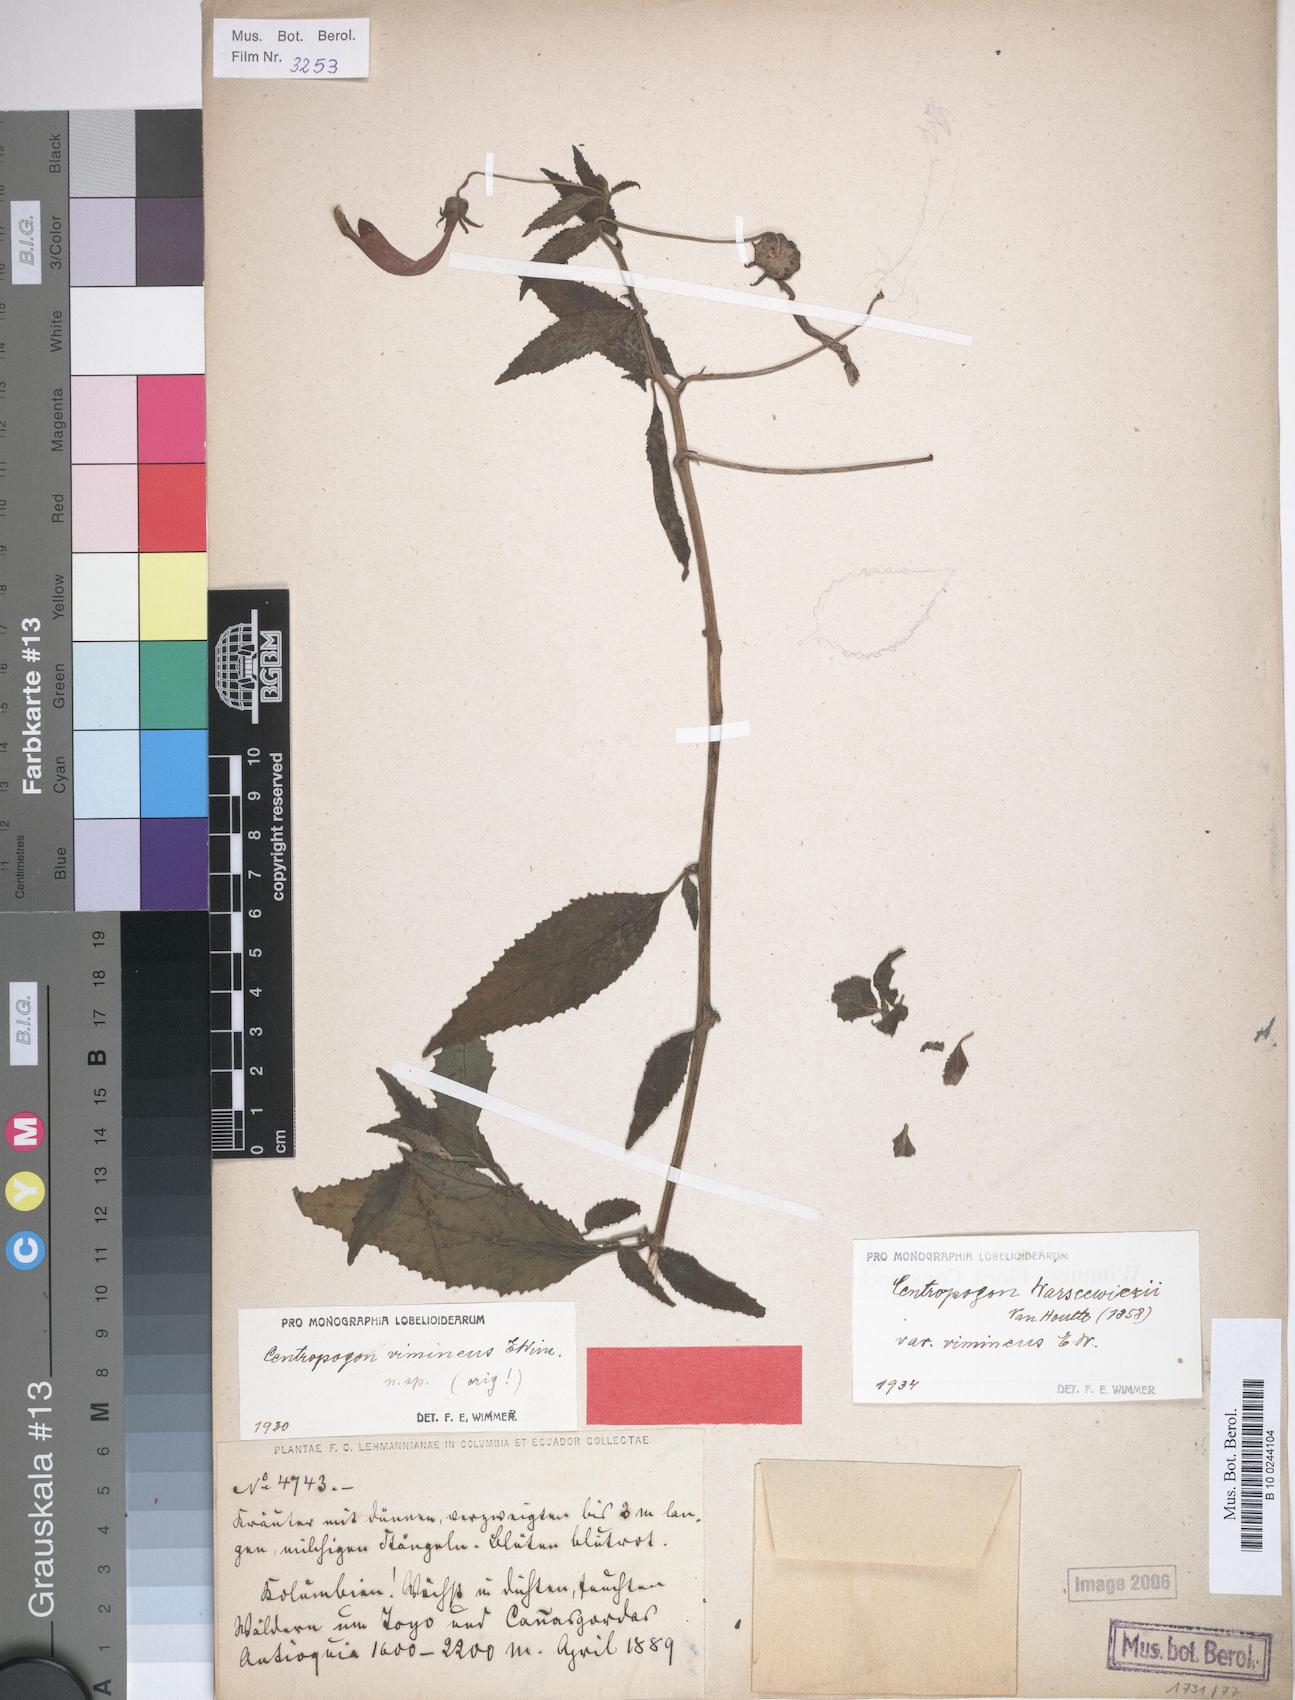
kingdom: Plantae
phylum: Tracheophyta
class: Magnoliopsida
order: Asterales
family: Campanulaceae
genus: Centropogon
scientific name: Centropogon warscewiczii
